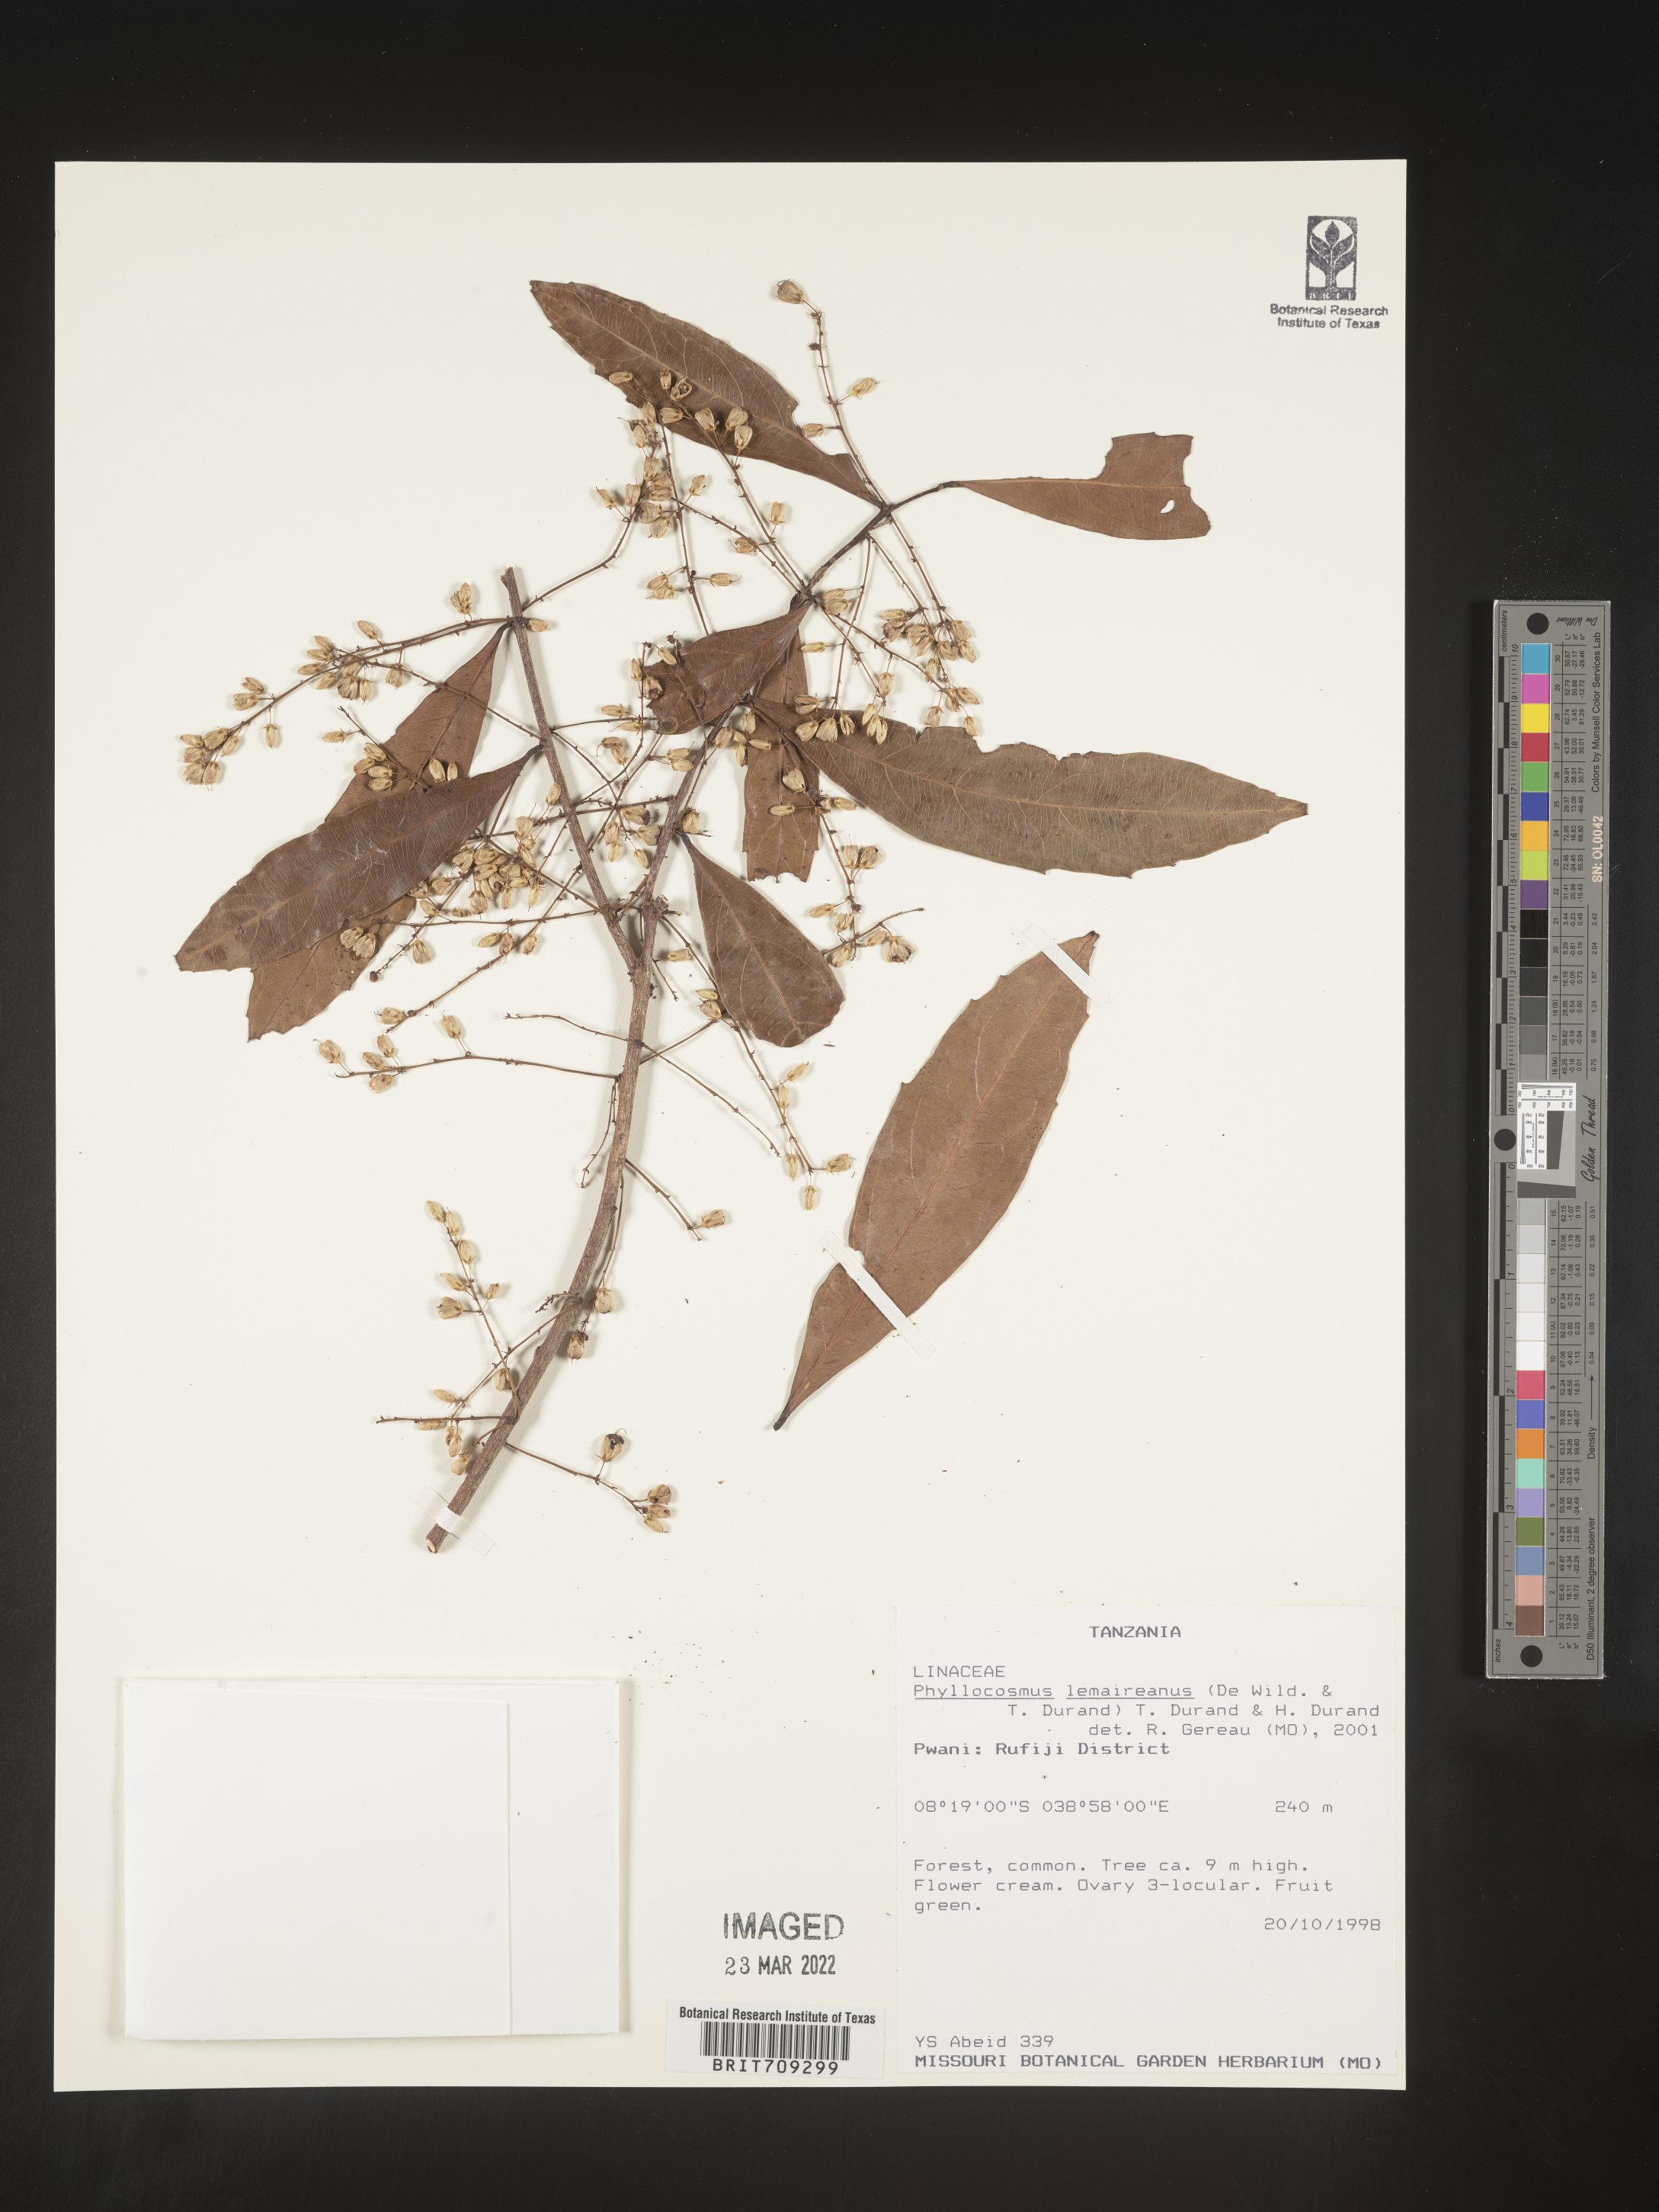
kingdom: Plantae
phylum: Tracheophyta
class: Magnoliopsida
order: Malpighiales
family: Ixonanthaceae
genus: Phyllocosmus
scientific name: Phyllocosmus
